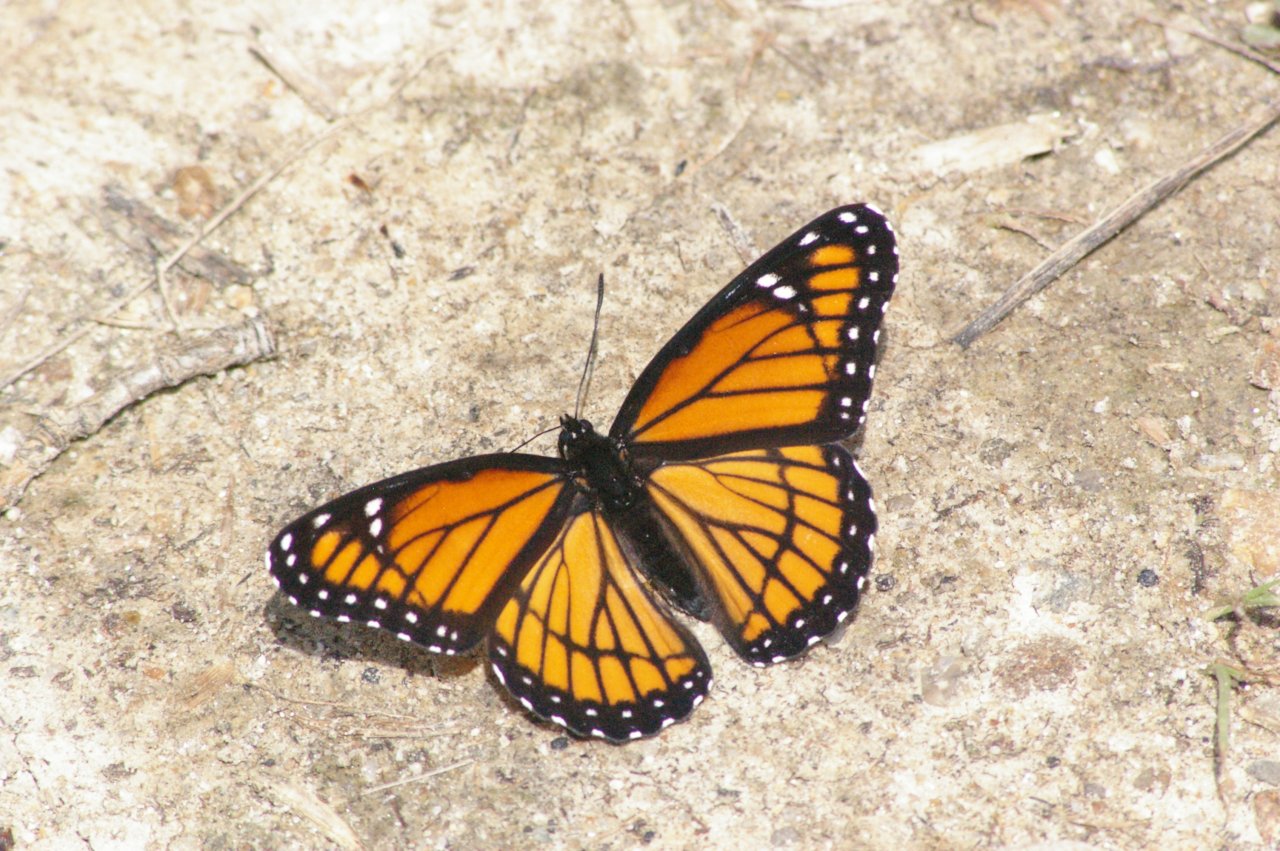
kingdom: Animalia
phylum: Arthropoda
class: Insecta
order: Lepidoptera
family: Nymphalidae
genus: Limenitis
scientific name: Limenitis archippus
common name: Viceroy
